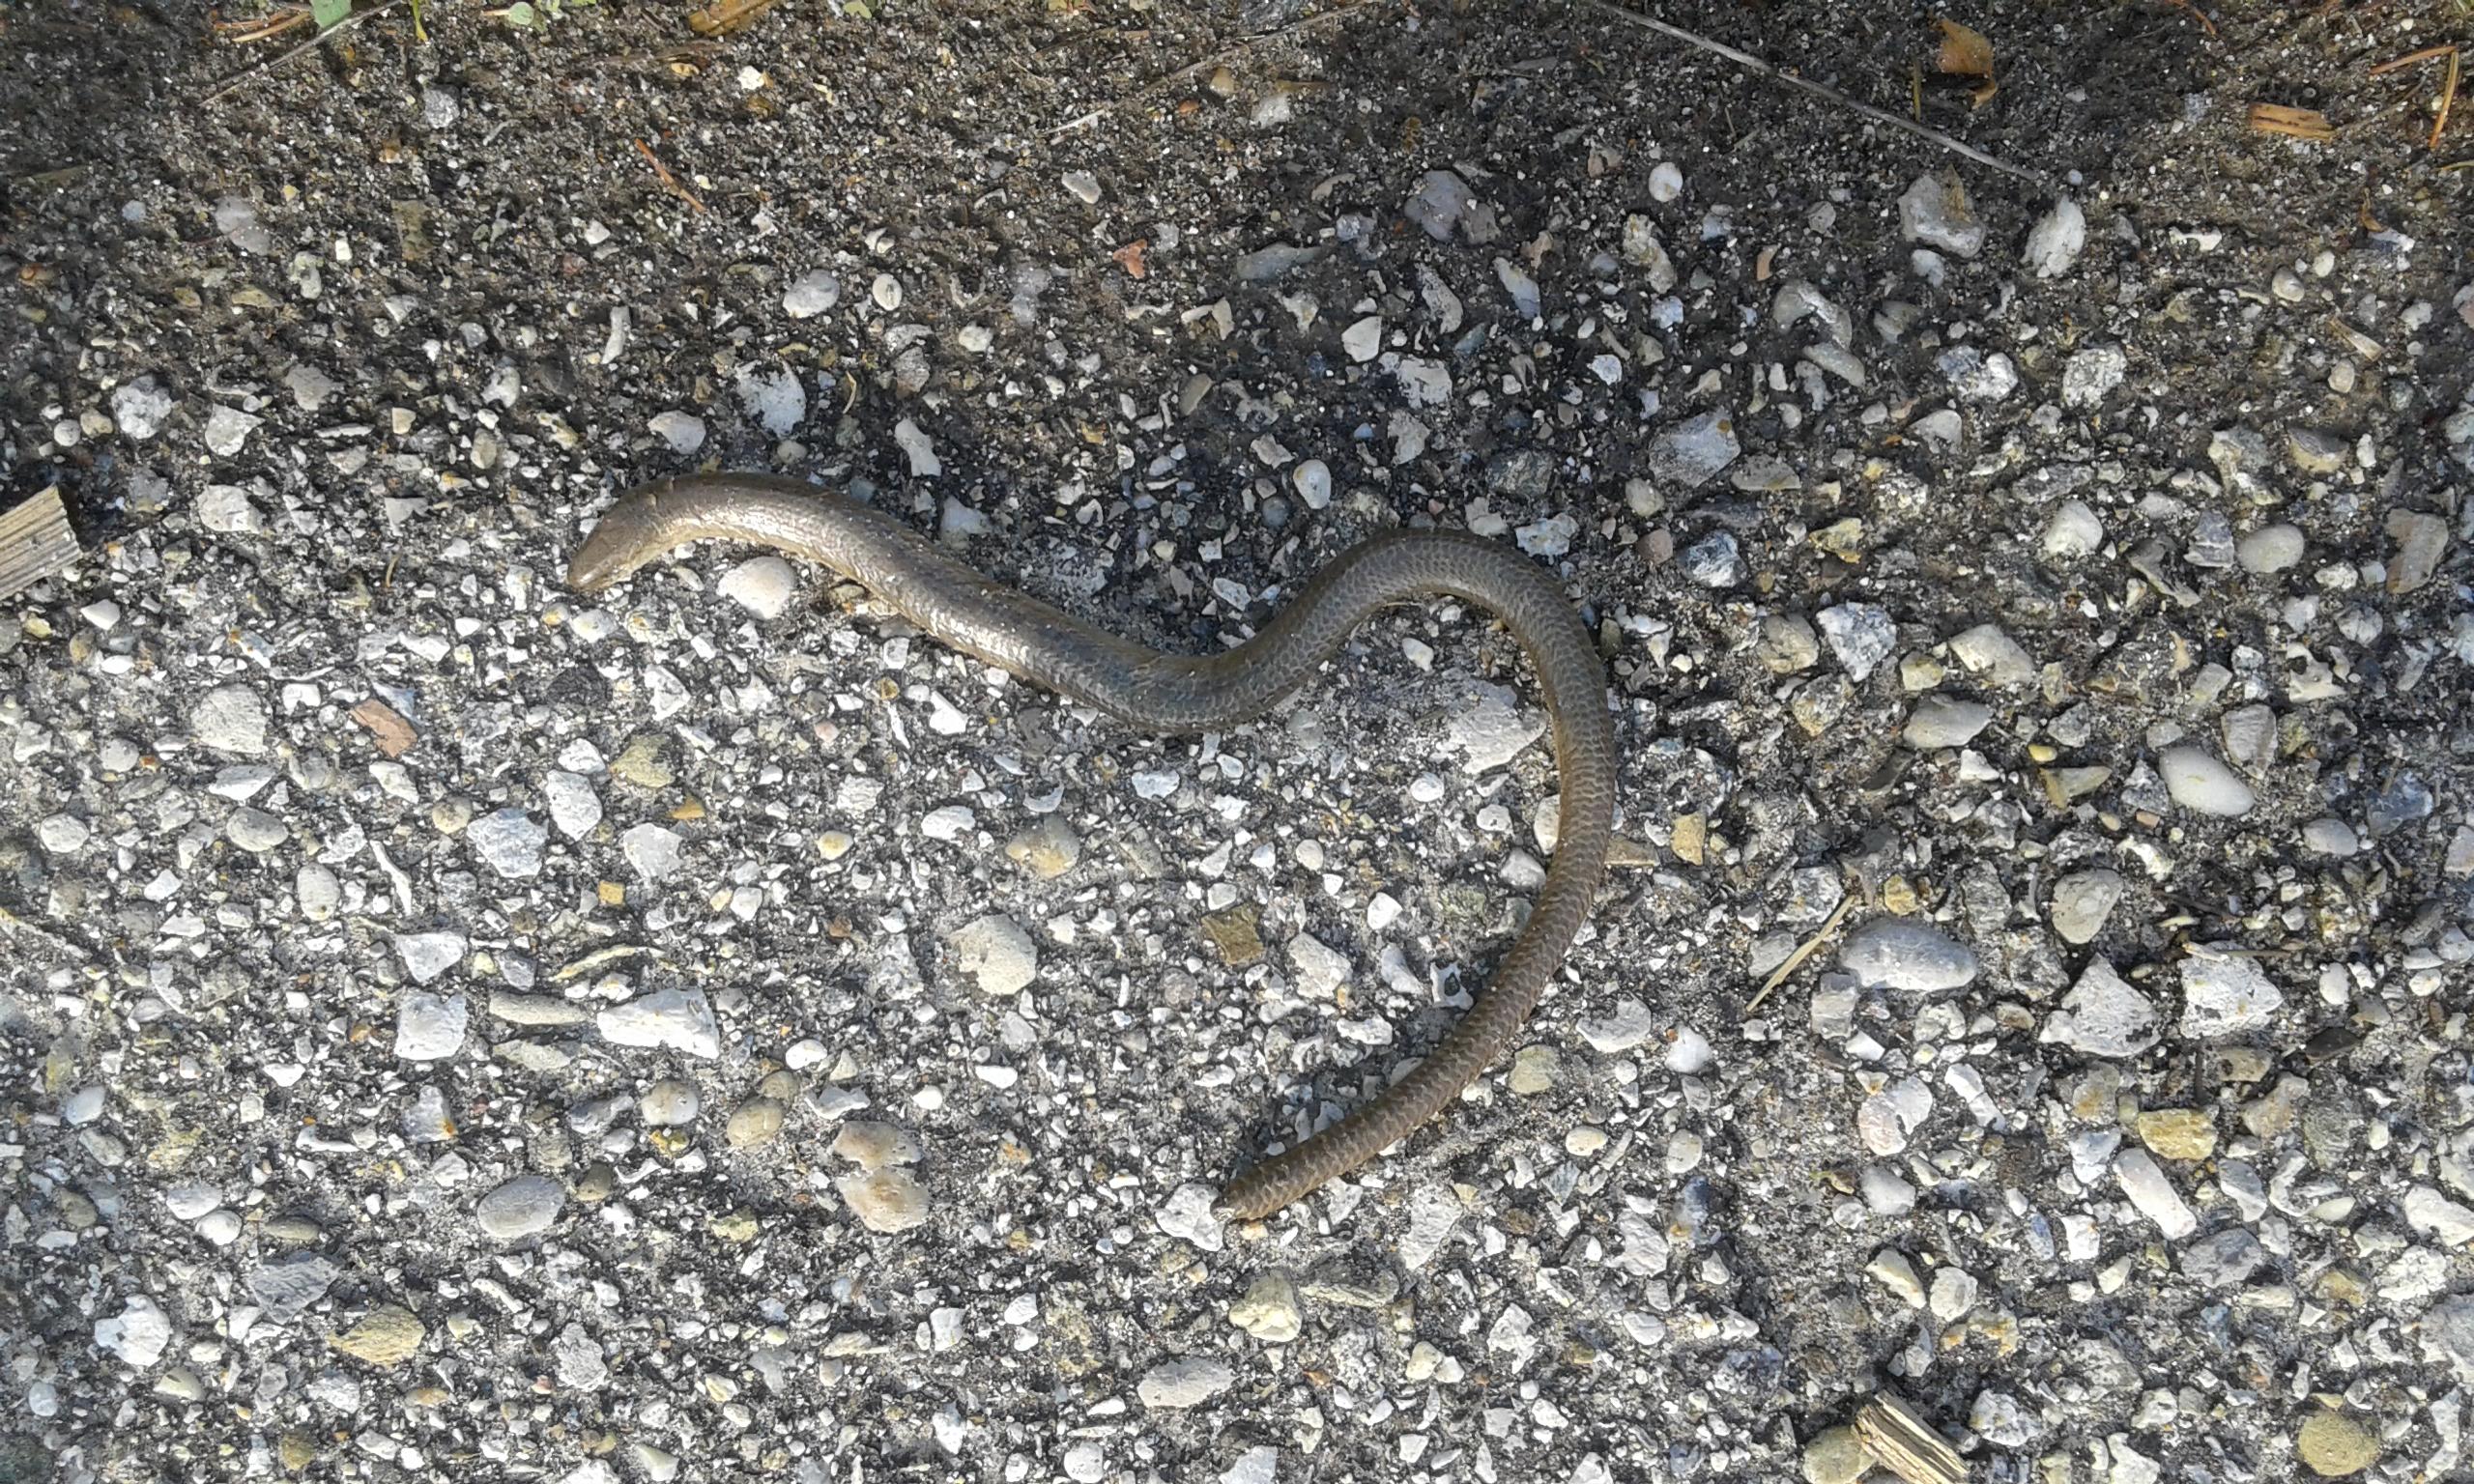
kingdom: Animalia
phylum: Chordata
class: Squamata
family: Anguidae
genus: Anguis
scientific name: Anguis fragilis
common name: Slow worm
